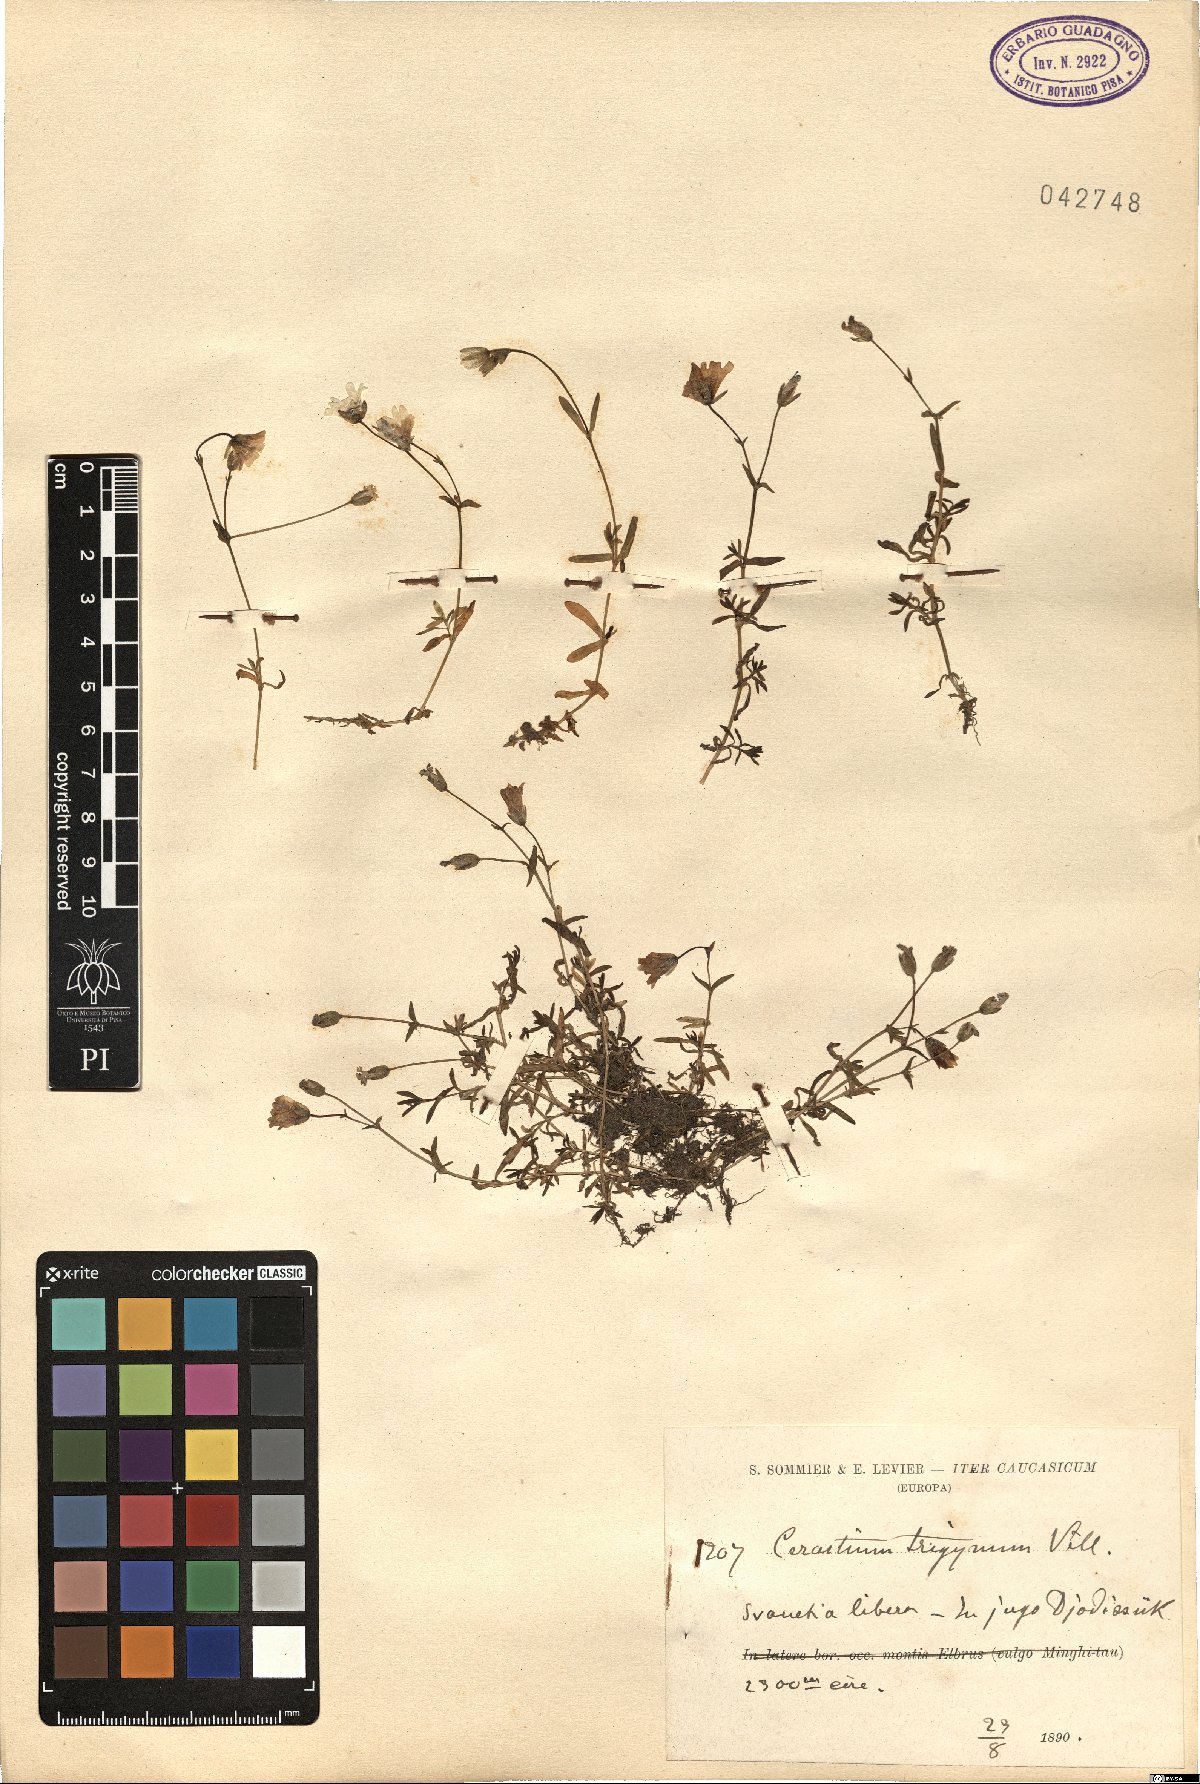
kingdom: Plantae
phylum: Tracheophyta
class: Magnoliopsida
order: Caryophyllales
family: Caryophyllaceae
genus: Dichodon
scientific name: Dichodon cerastoides
